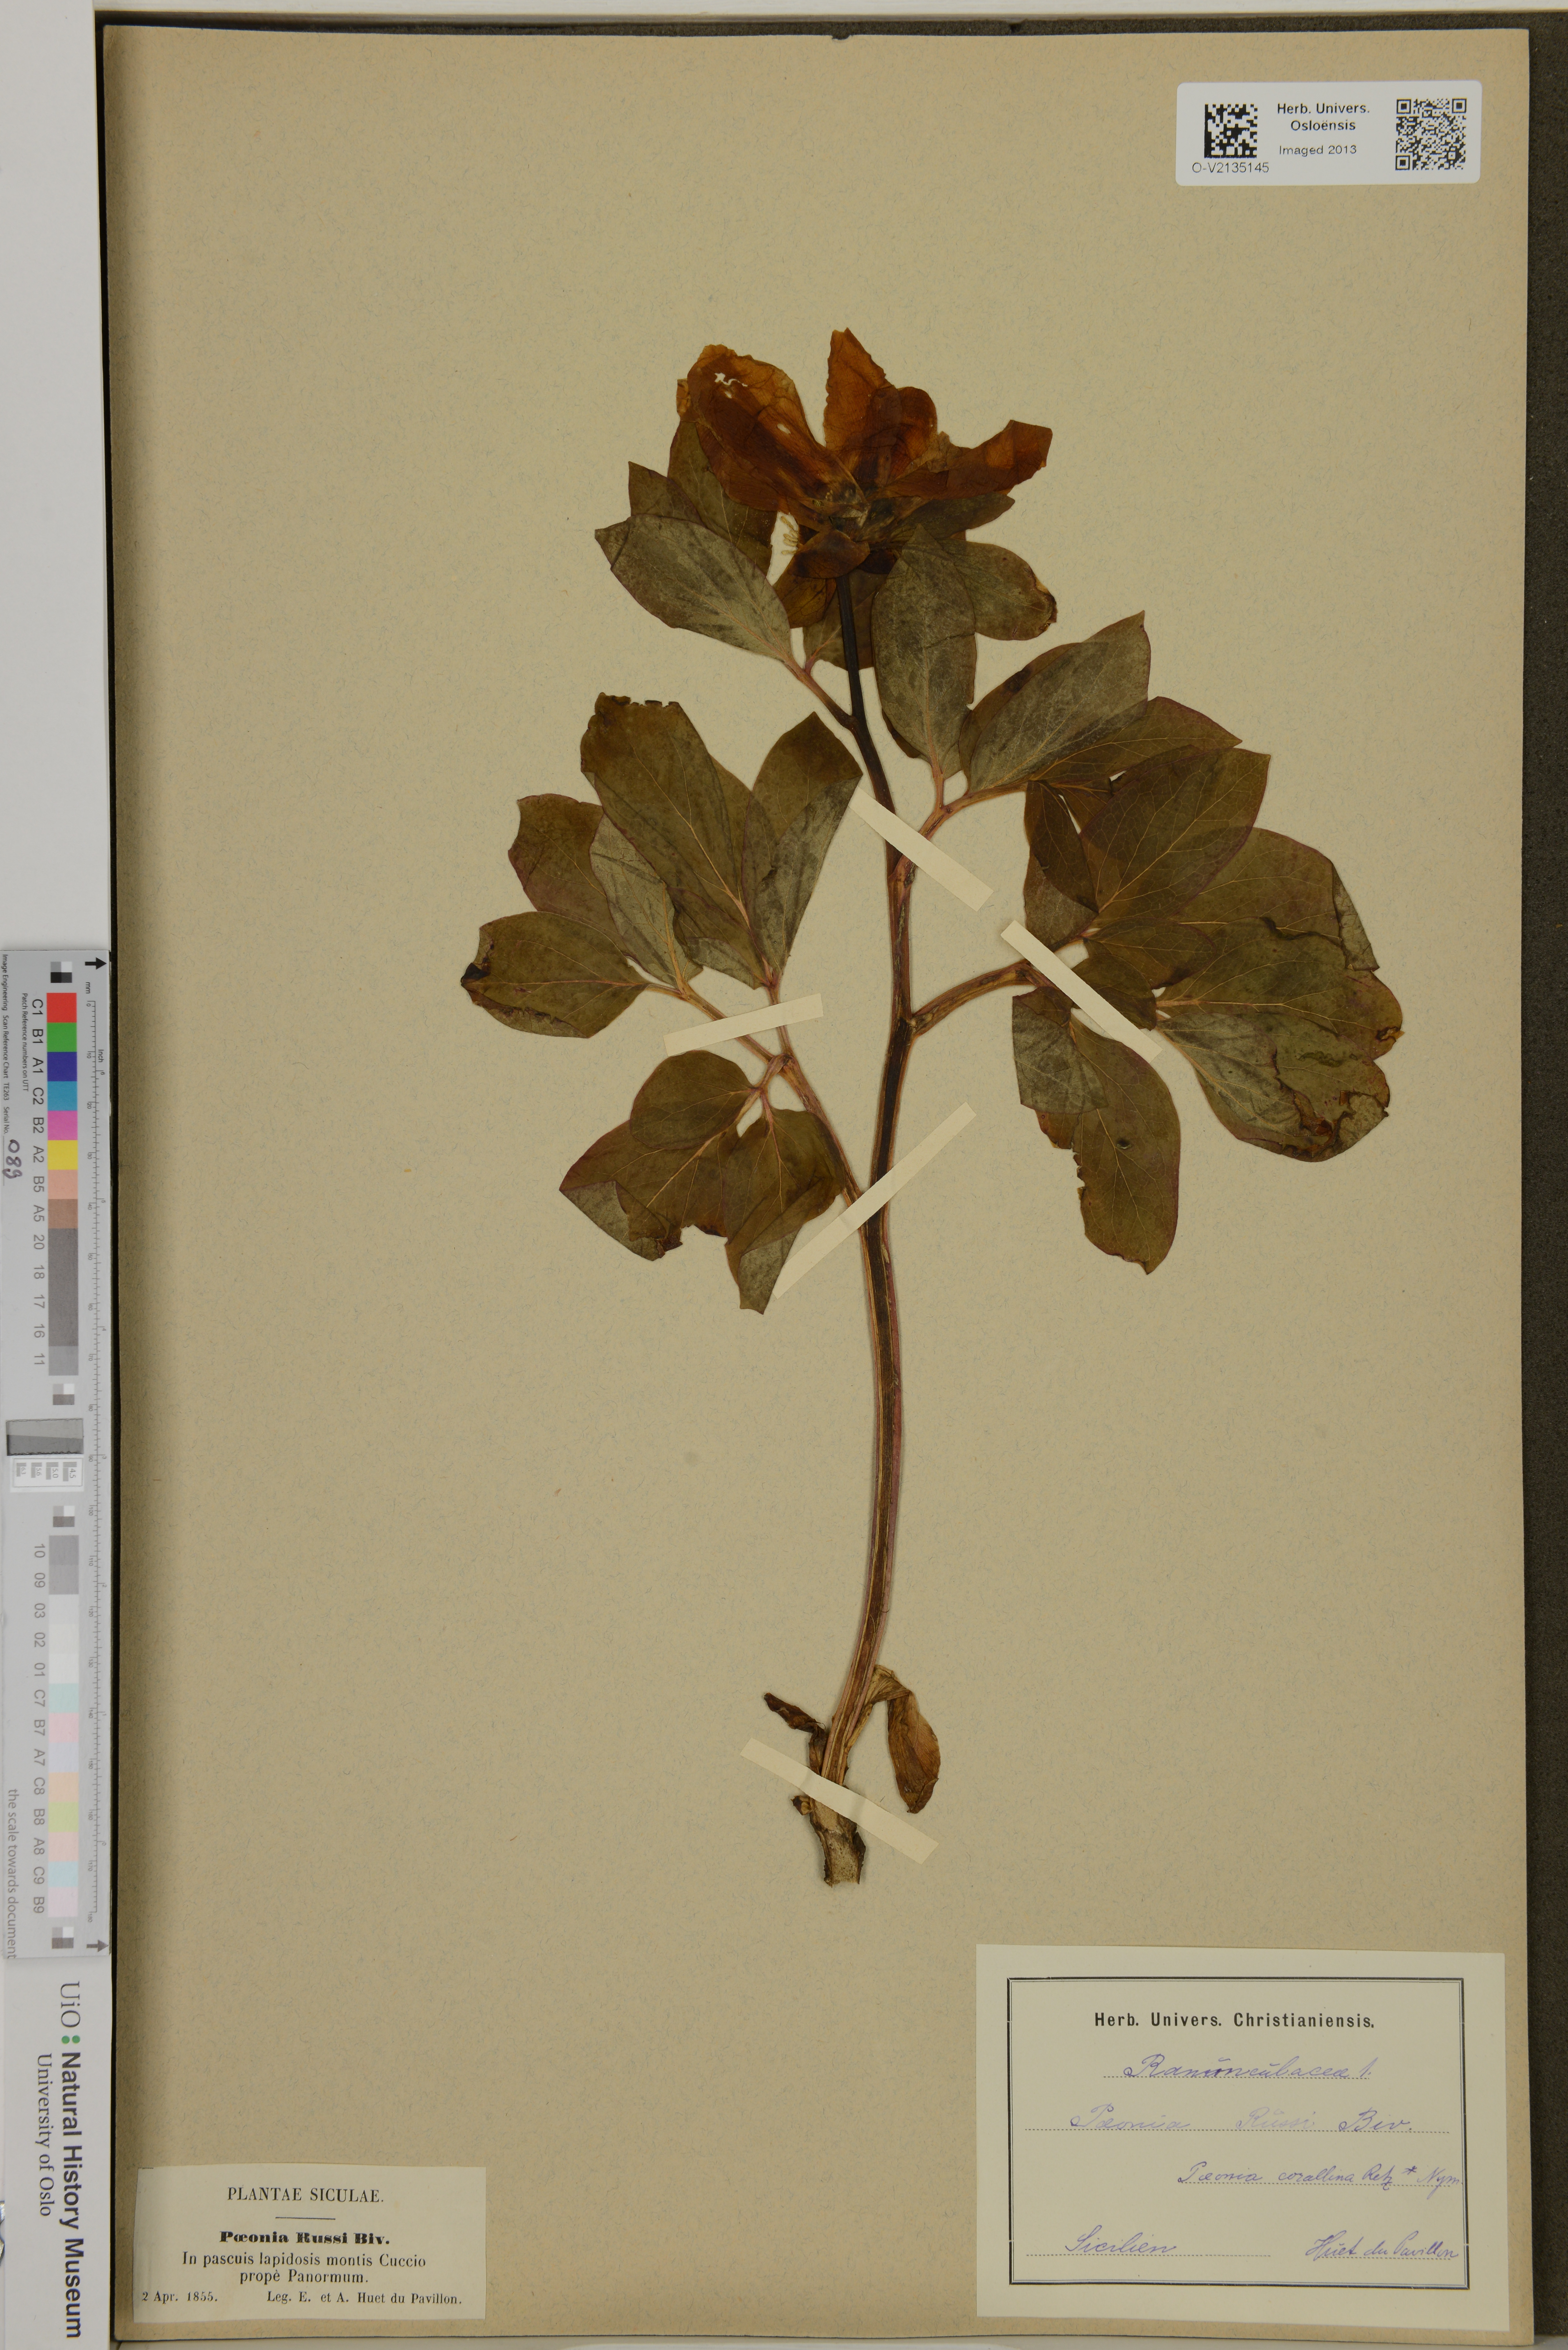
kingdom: Plantae
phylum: Tracheophyta
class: Magnoliopsida
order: Saxifragales
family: Paeoniaceae
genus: Paeonia
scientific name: Paeonia mascula
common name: Peony
